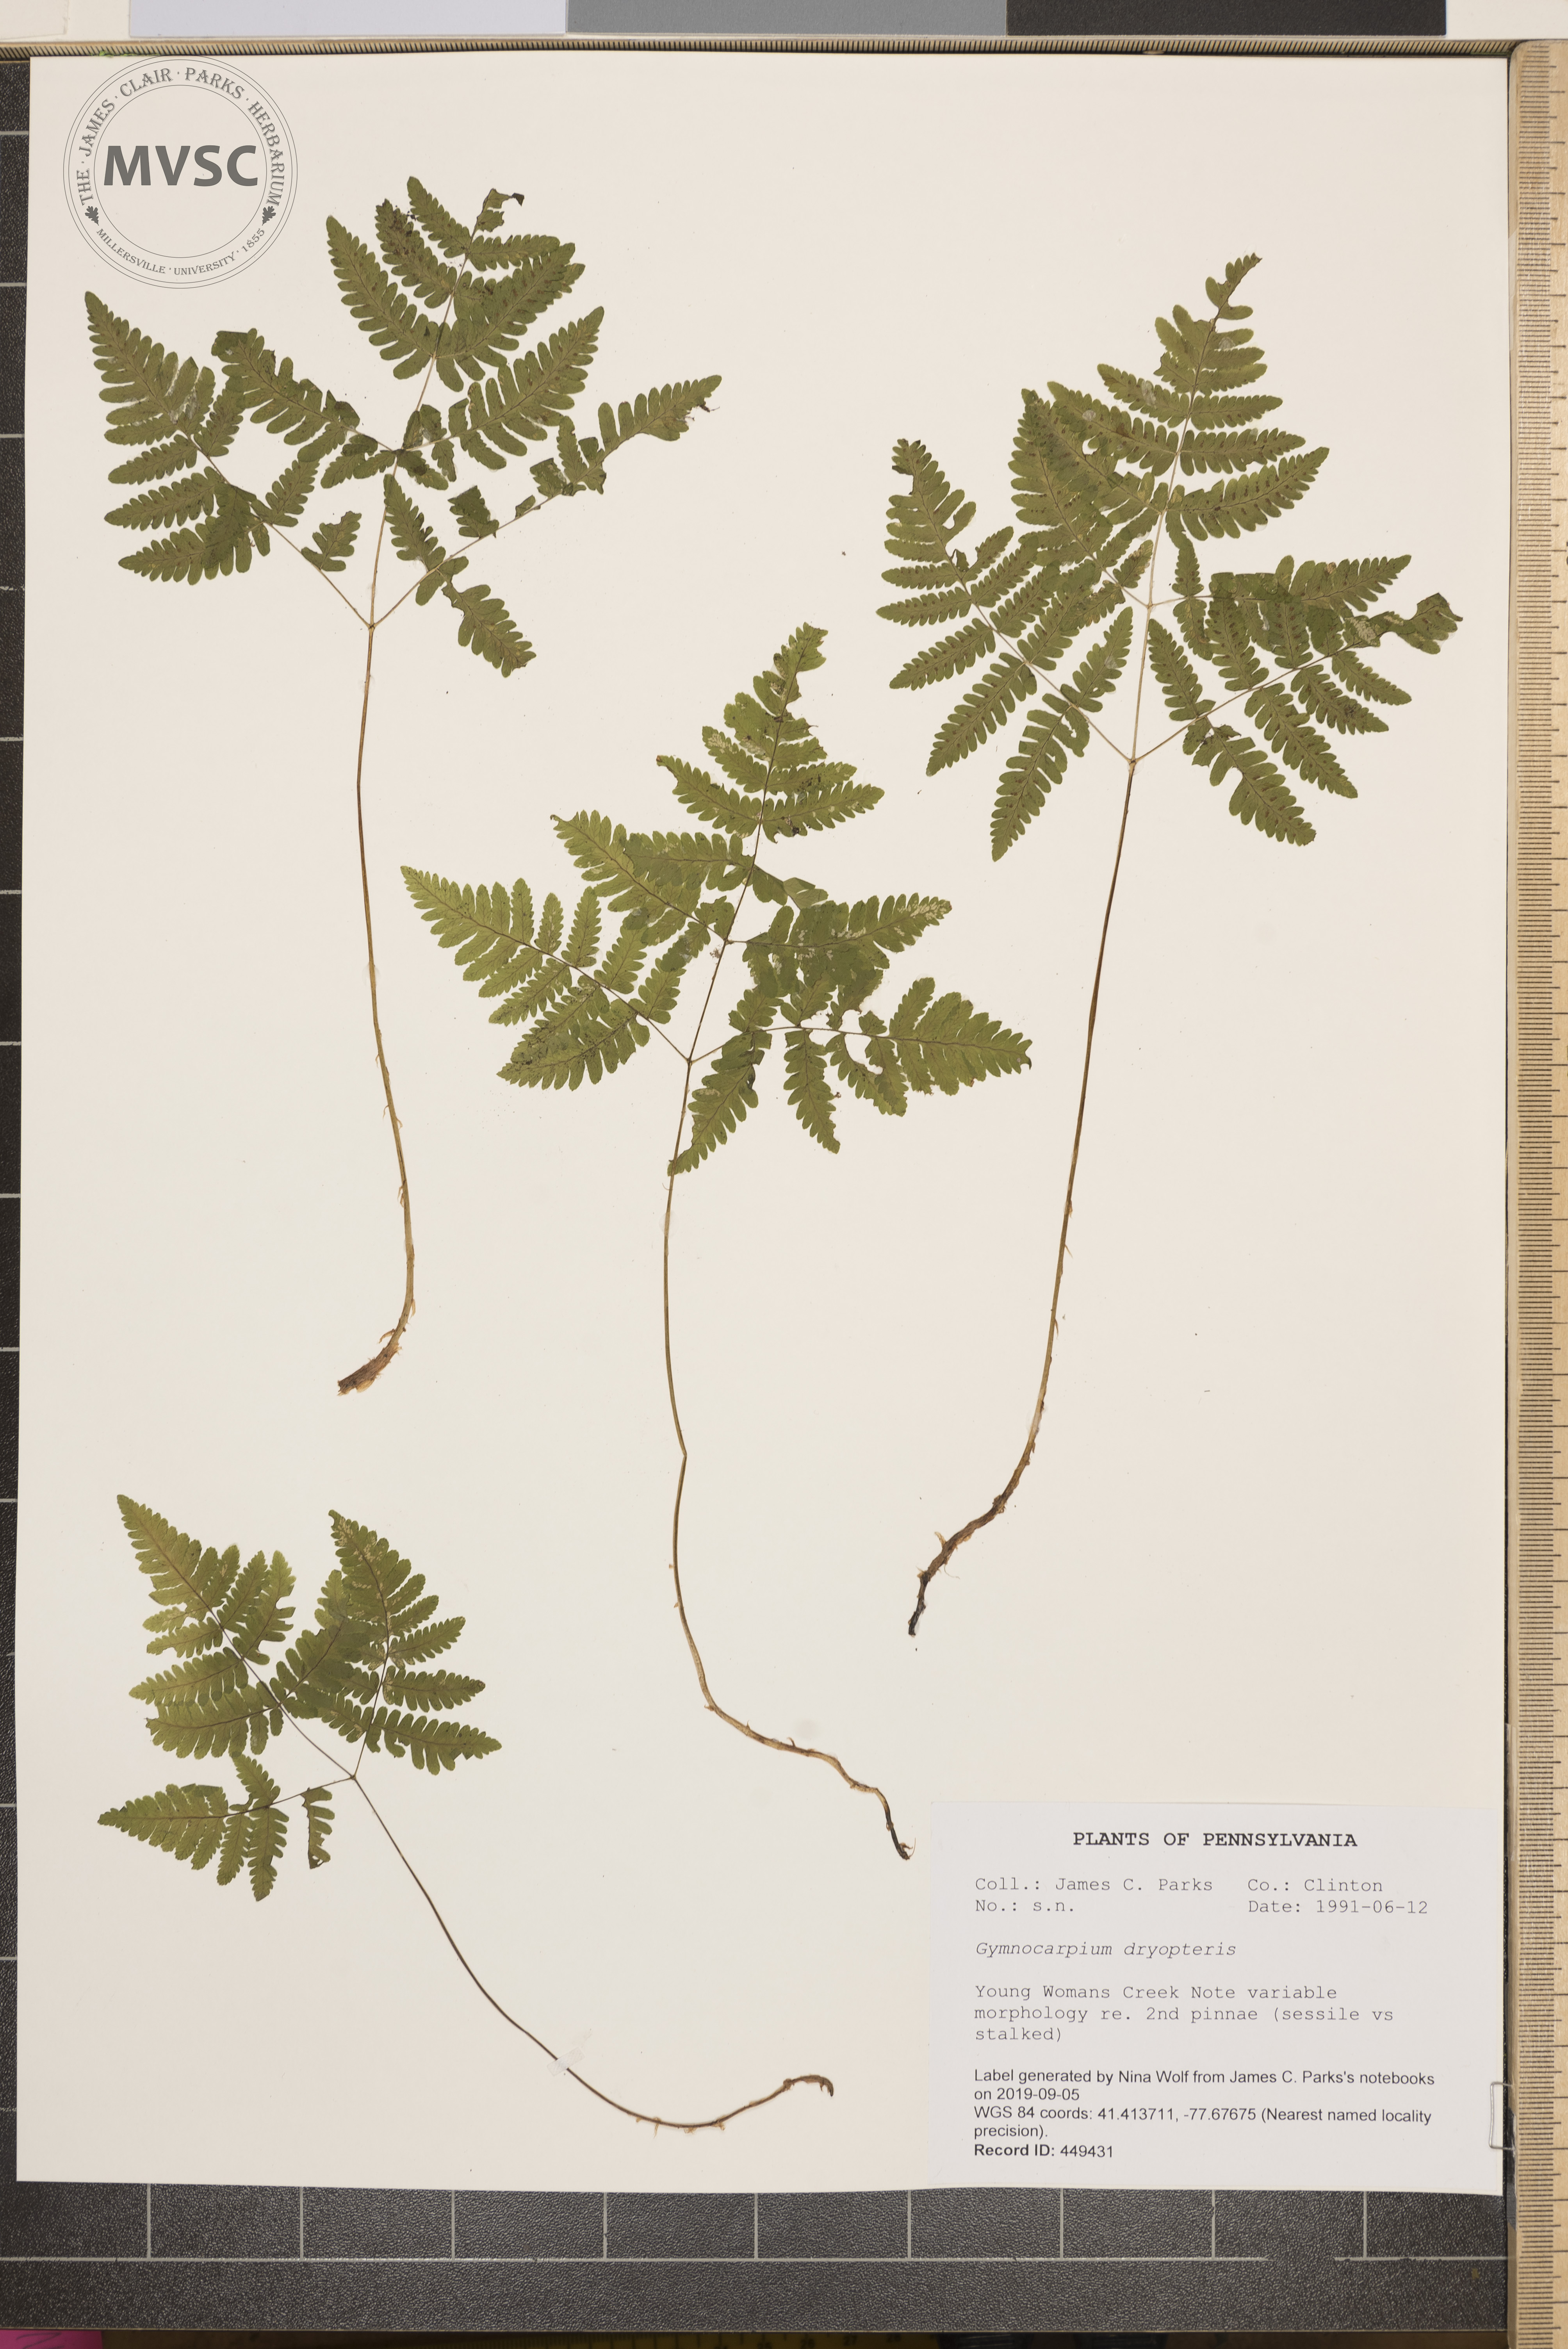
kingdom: Plantae
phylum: Tracheophyta
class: Polypodiopsida
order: Polypodiales
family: Cystopteridaceae
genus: Gymnocarpium
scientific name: Gymnocarpium dryopteris
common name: Oak fern
